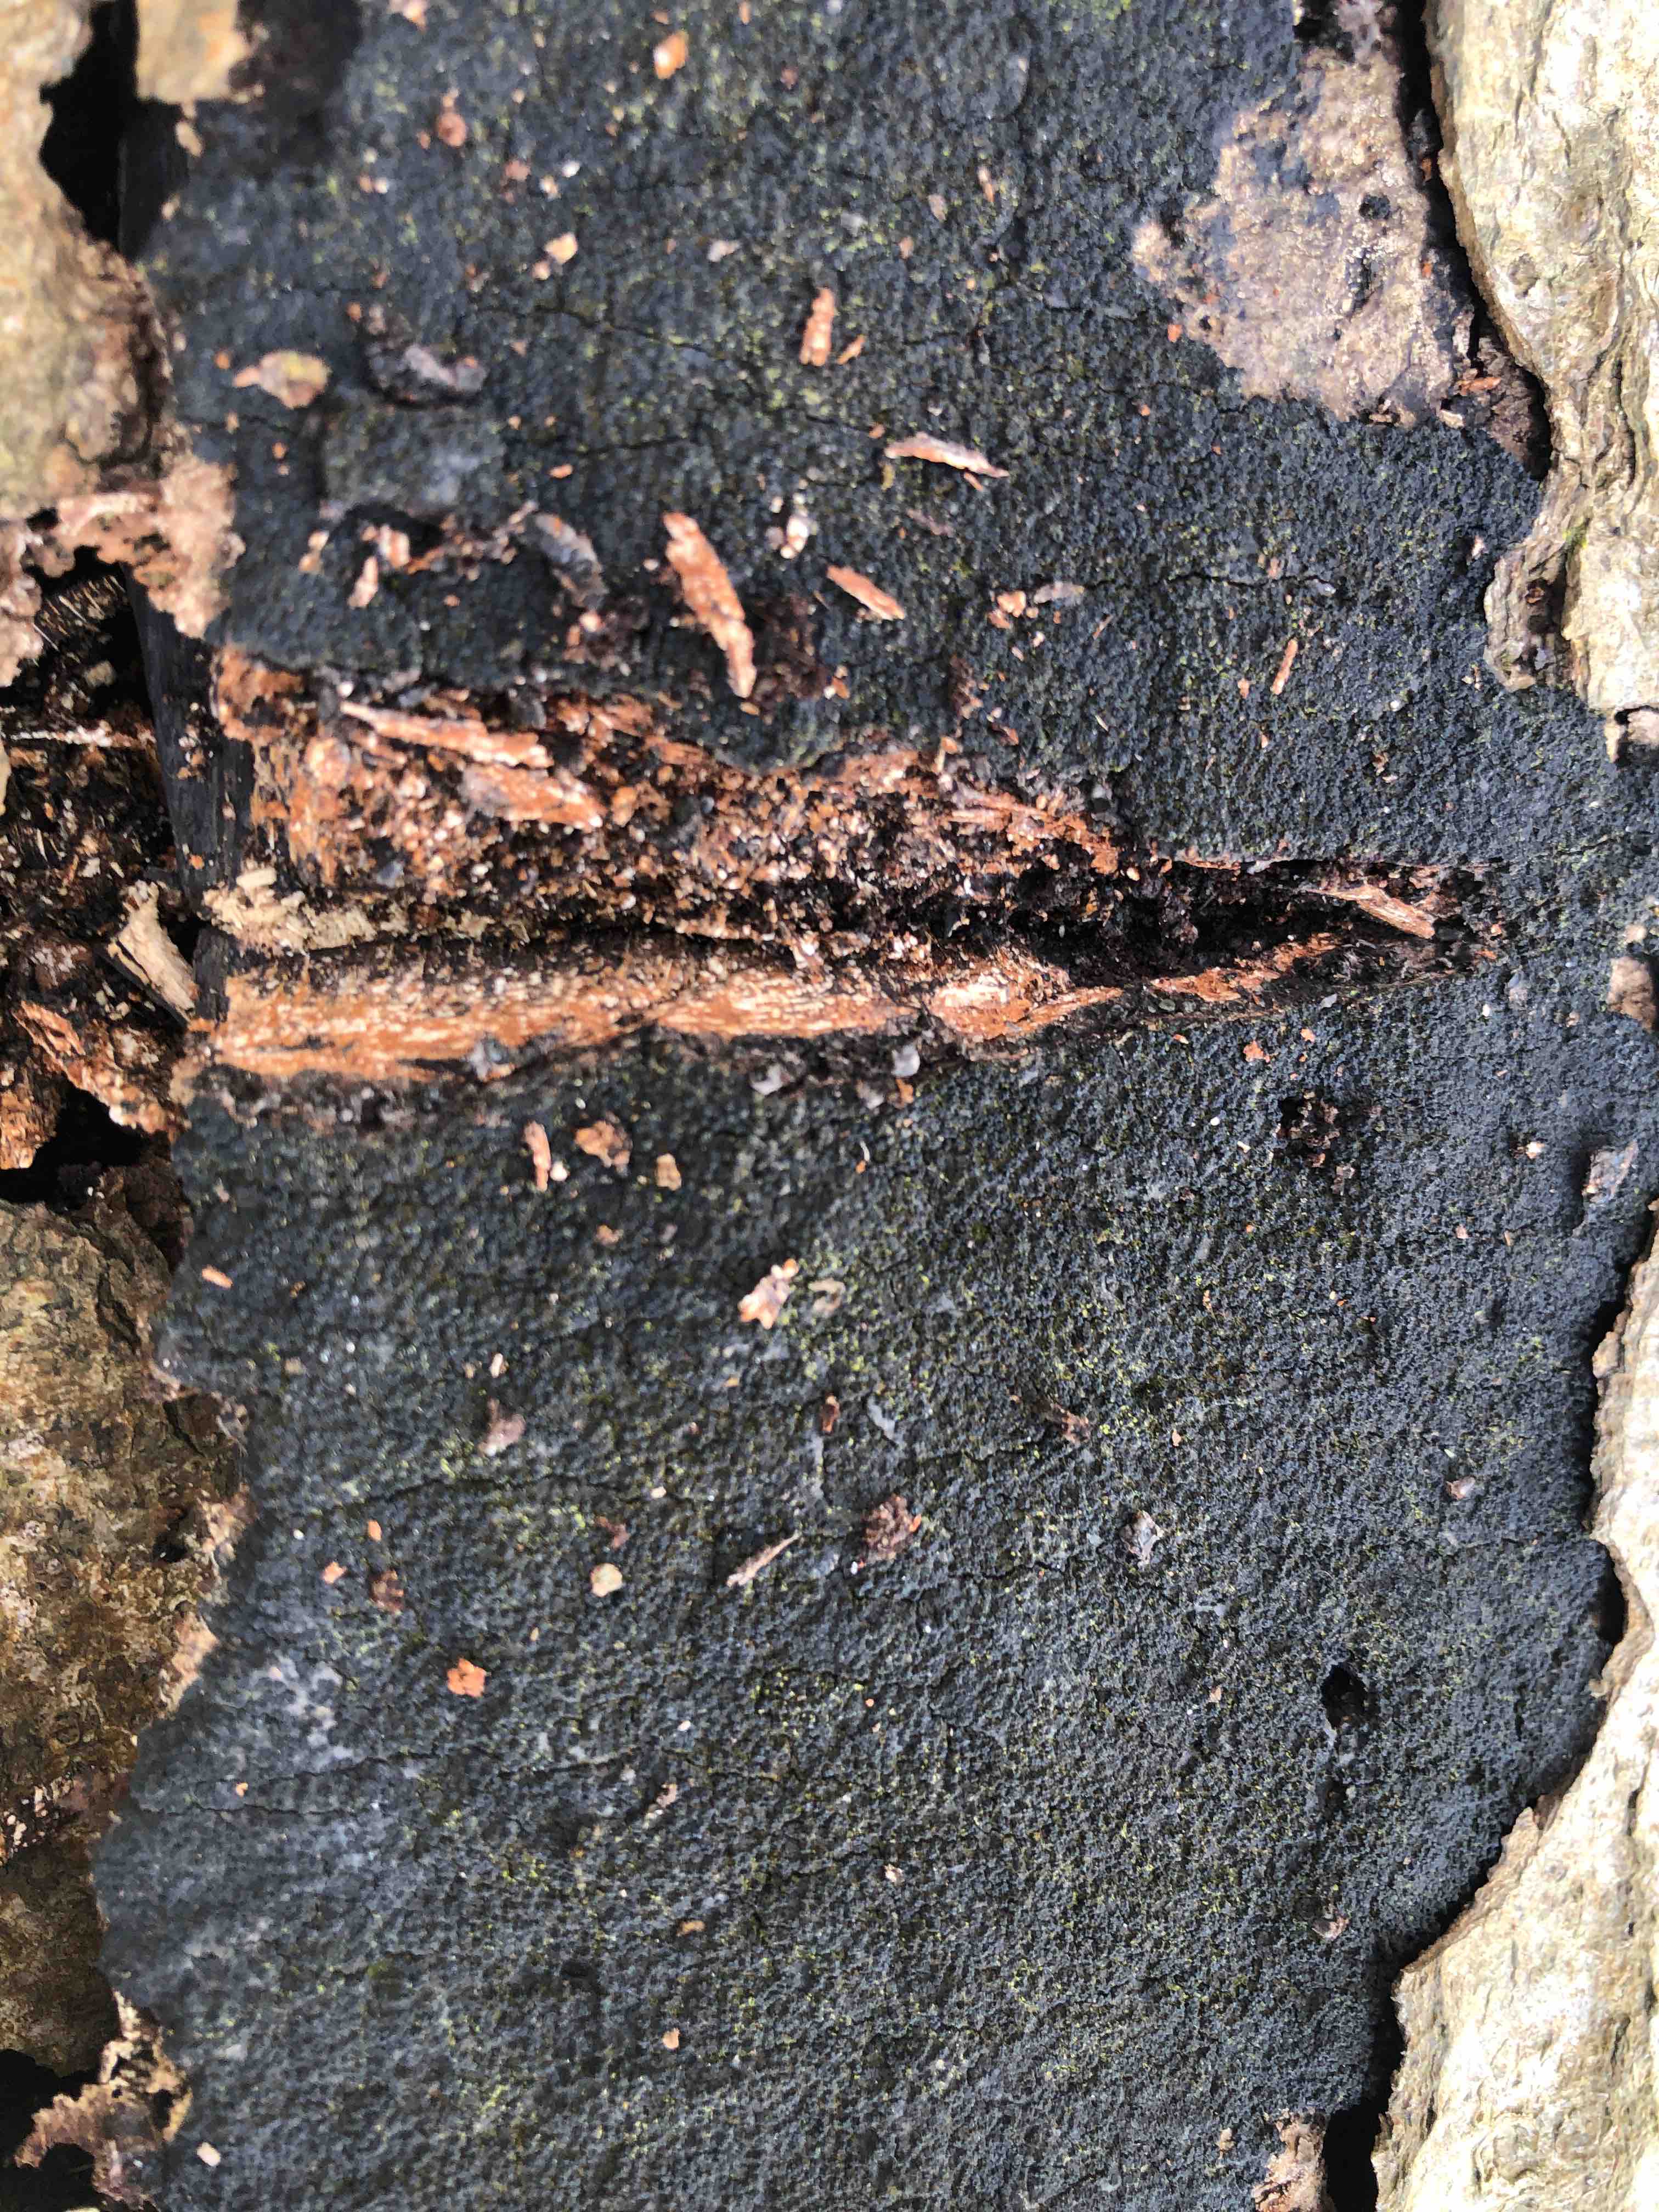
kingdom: Fungi
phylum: Ascomycota
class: Sordariomycetes
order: Xylariales
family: Diatrypaceae
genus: Eutypa
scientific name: Eutypa spinosa
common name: grov kulskorpe
